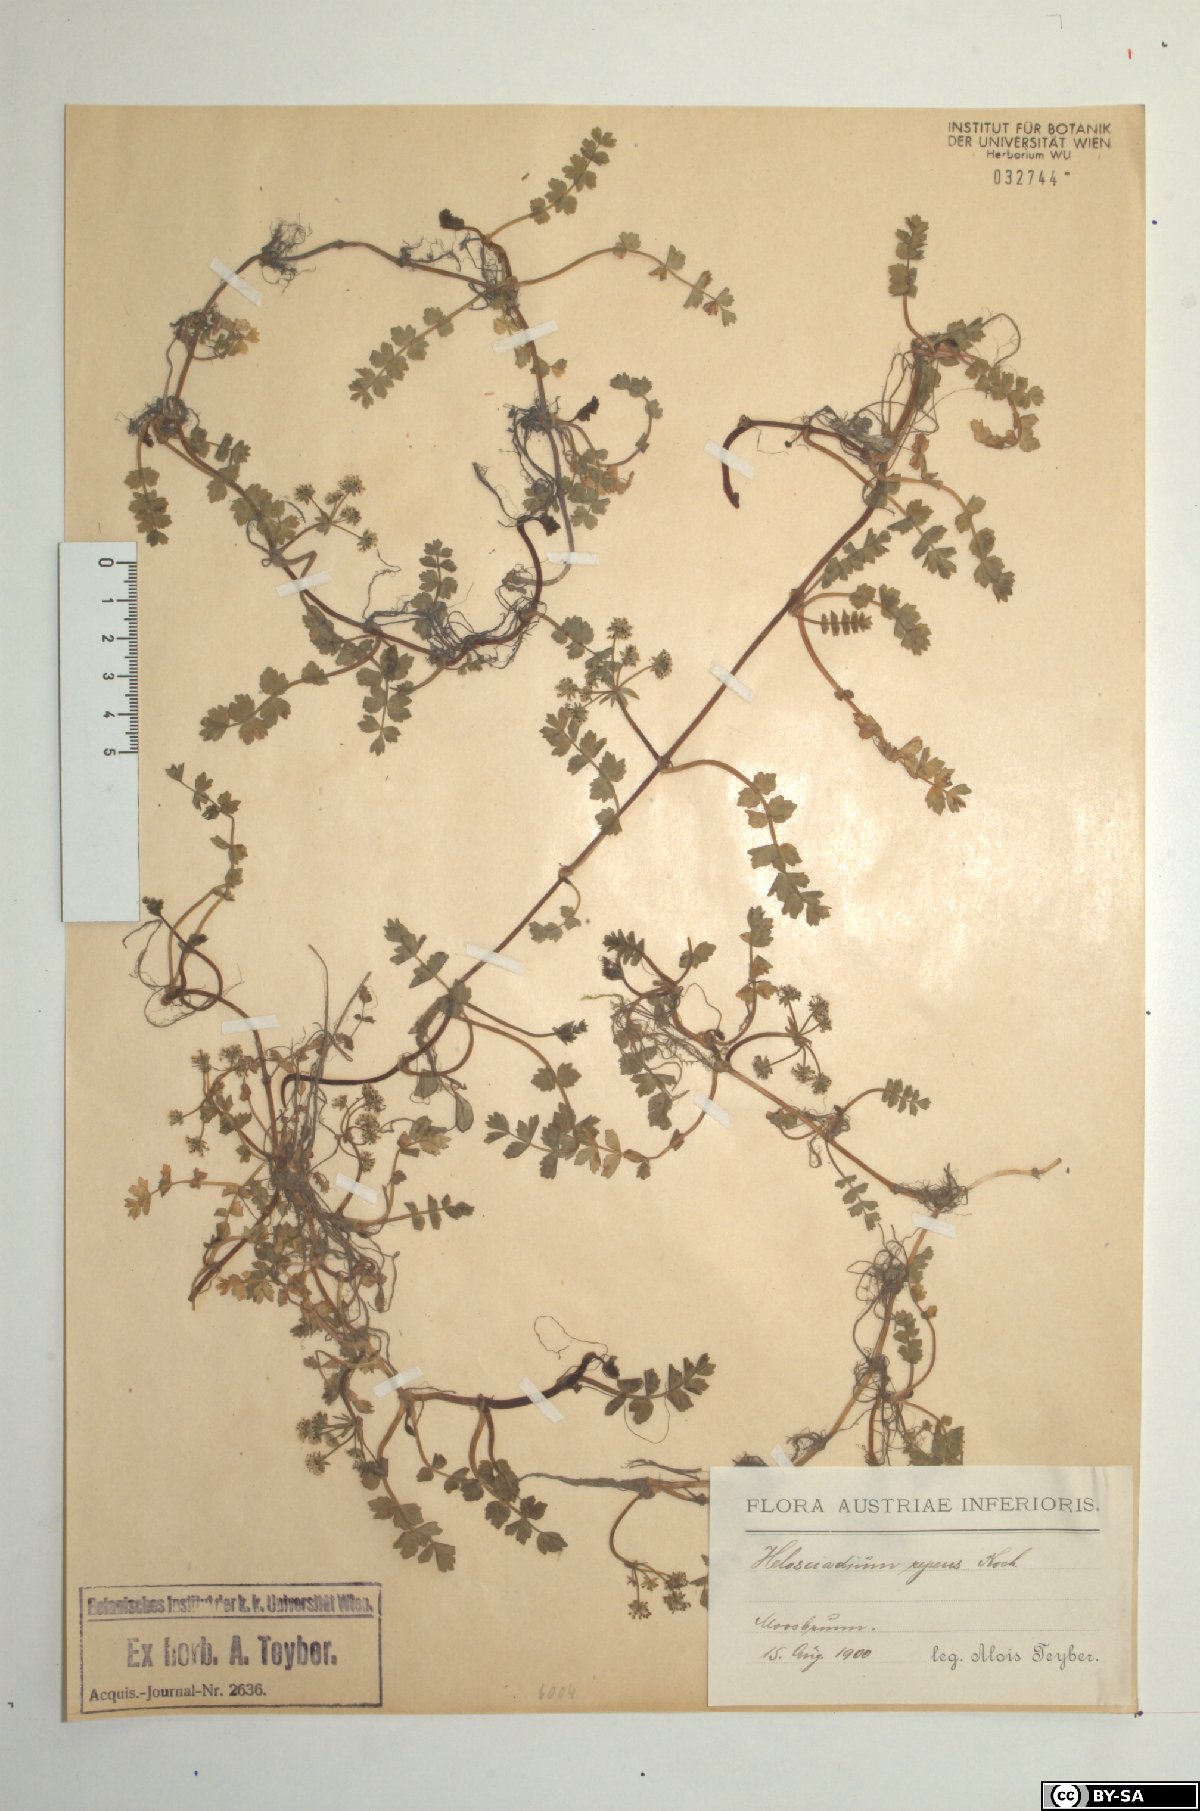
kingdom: Plantae
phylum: Tracheophyta
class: Magnoliopsida
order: Apiales
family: Apiaceae
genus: Helosciadium
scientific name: Helosciadium repens
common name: Creeping marshwort
